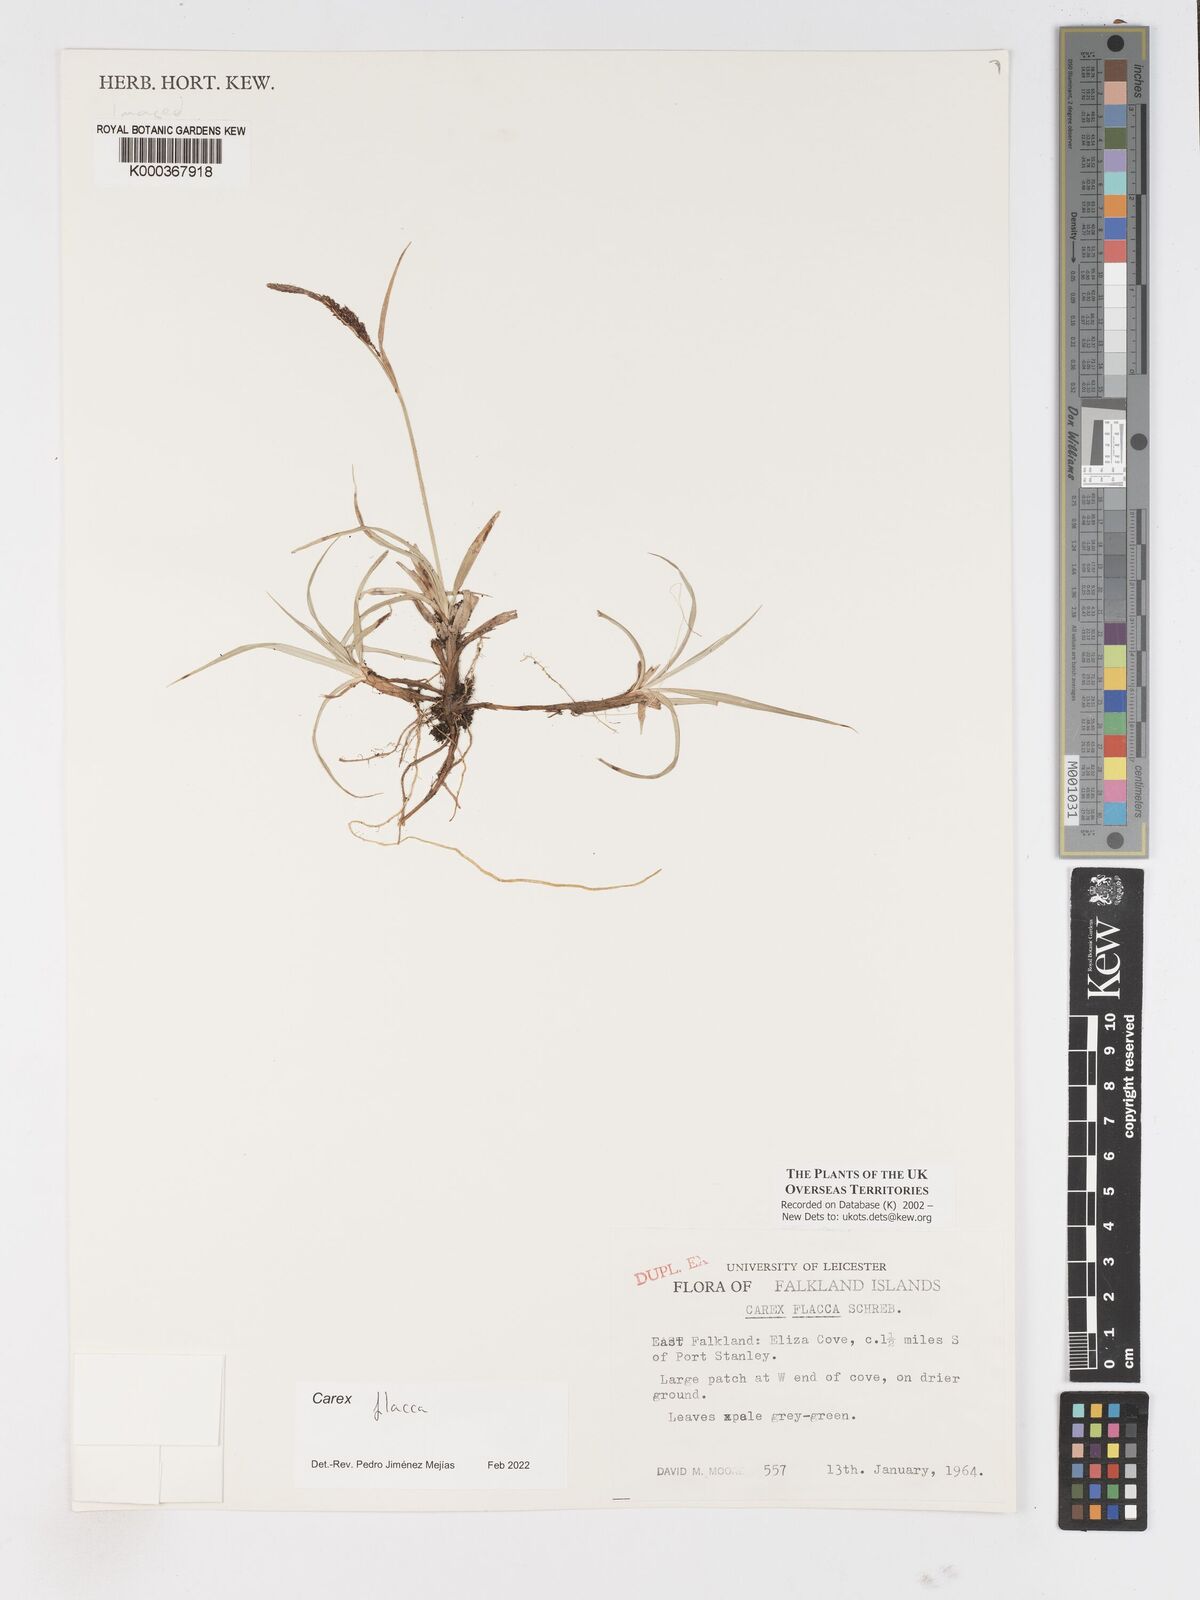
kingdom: Plantae
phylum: Tracheophyta
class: Liliopsida
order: Poales
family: Cyperaceae
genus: Carex
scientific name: Carex flacca
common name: Glaucous sedge
